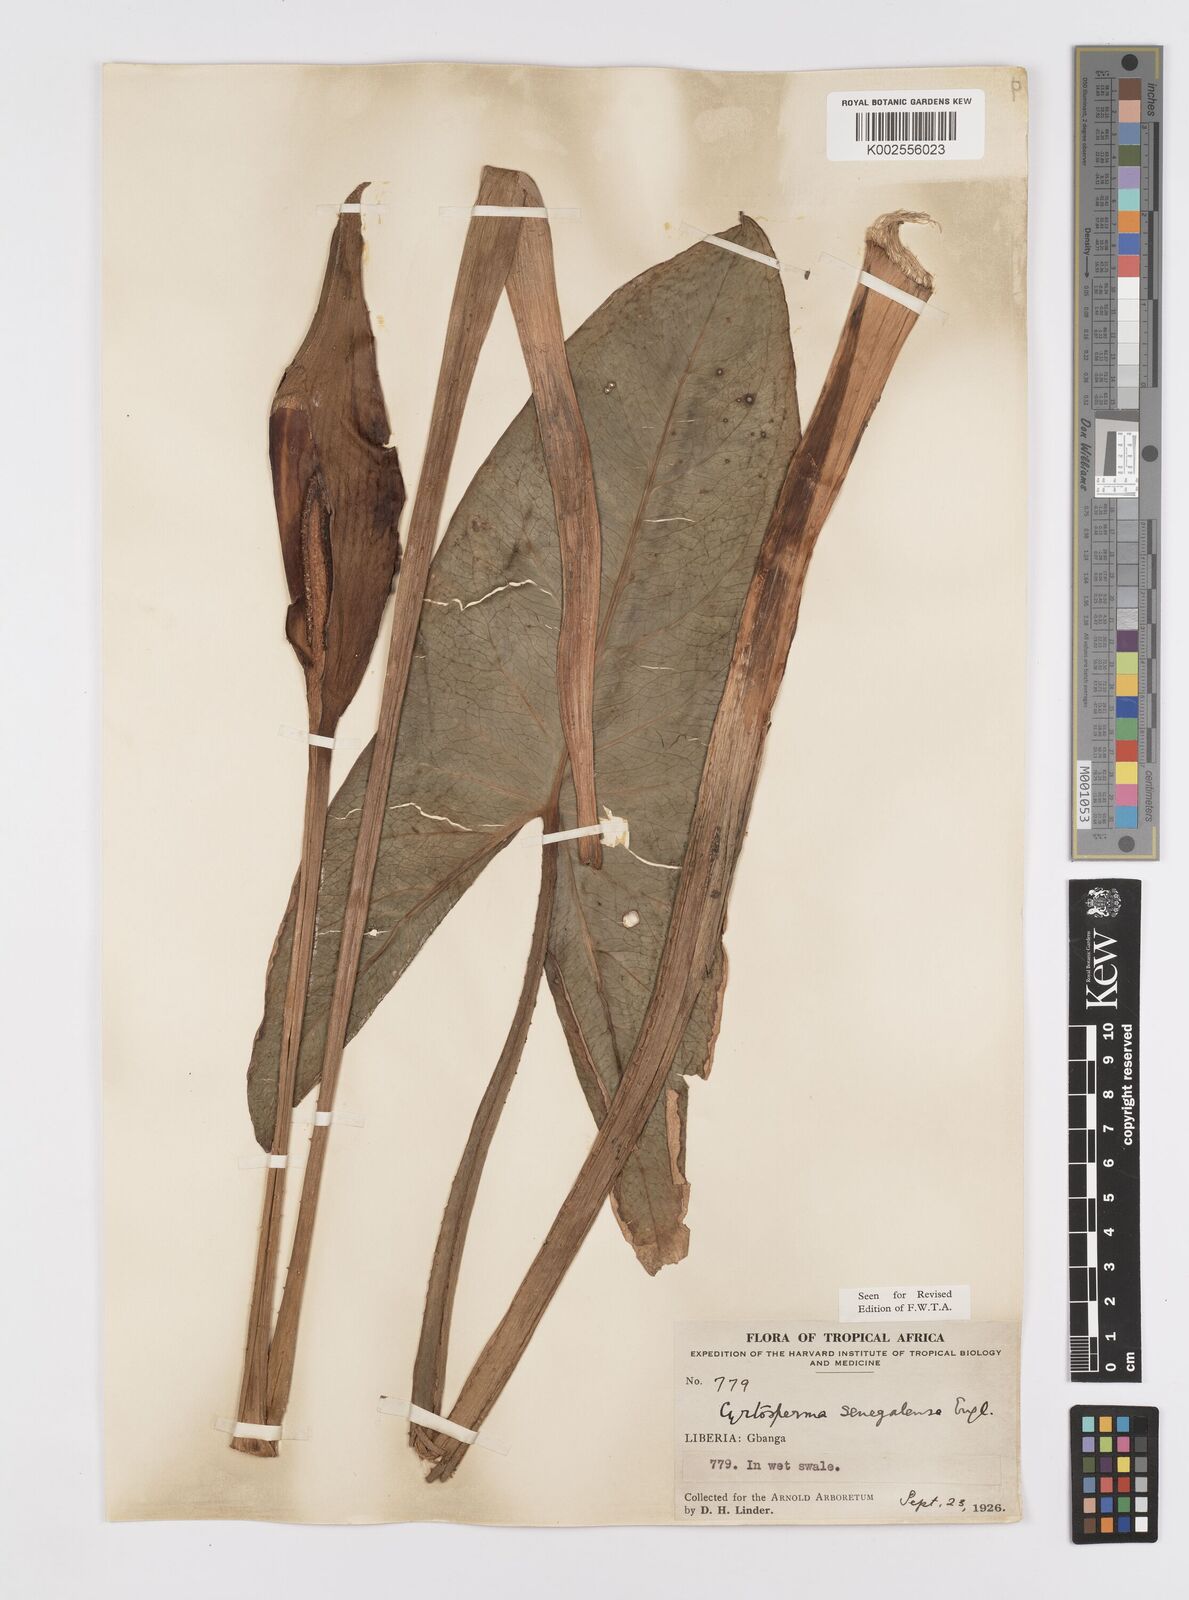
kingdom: Plantae
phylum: Tracheophyta
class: Liliopsida
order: Alismatales
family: Araceae
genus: Lasimorpha
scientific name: Lasimorpha senegalensis
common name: Swamp arum
